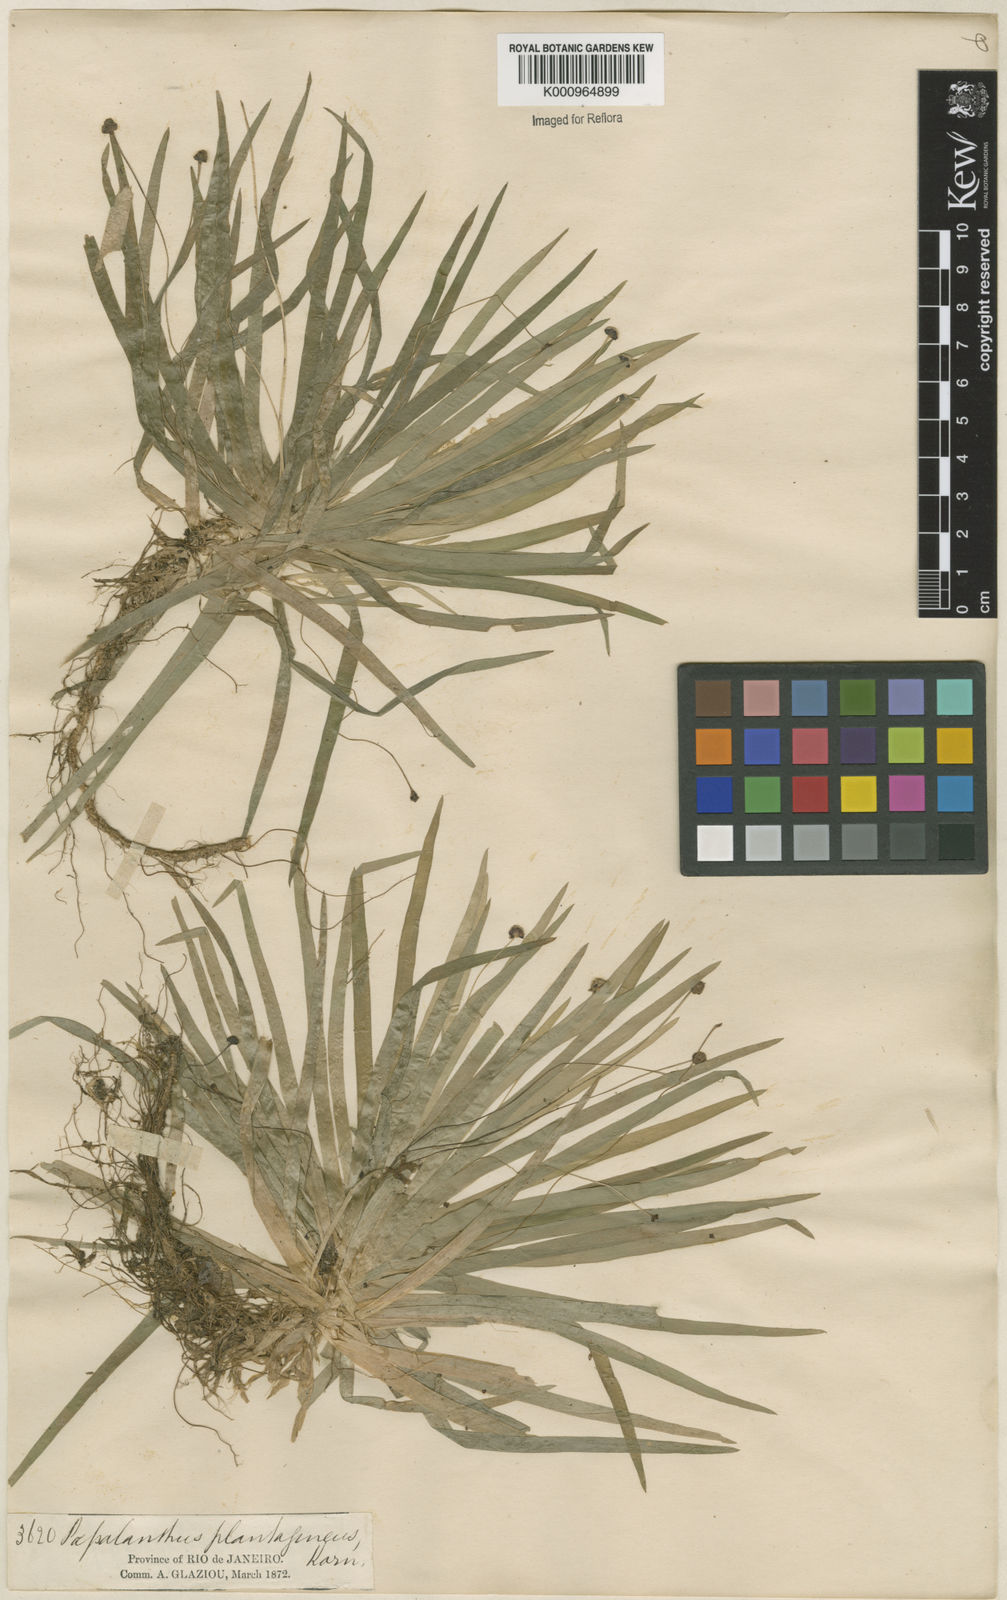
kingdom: Plantae
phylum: Tracheophyta
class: Liliopsida
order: Poales
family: Eriocaulaceae
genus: Paepalanthus
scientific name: Paepalanthus
